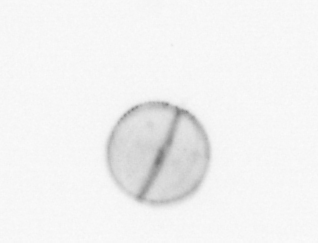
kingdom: Chromista
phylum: Ochrophyta
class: Bacillariophyceae
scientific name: Bacillariophyceae
